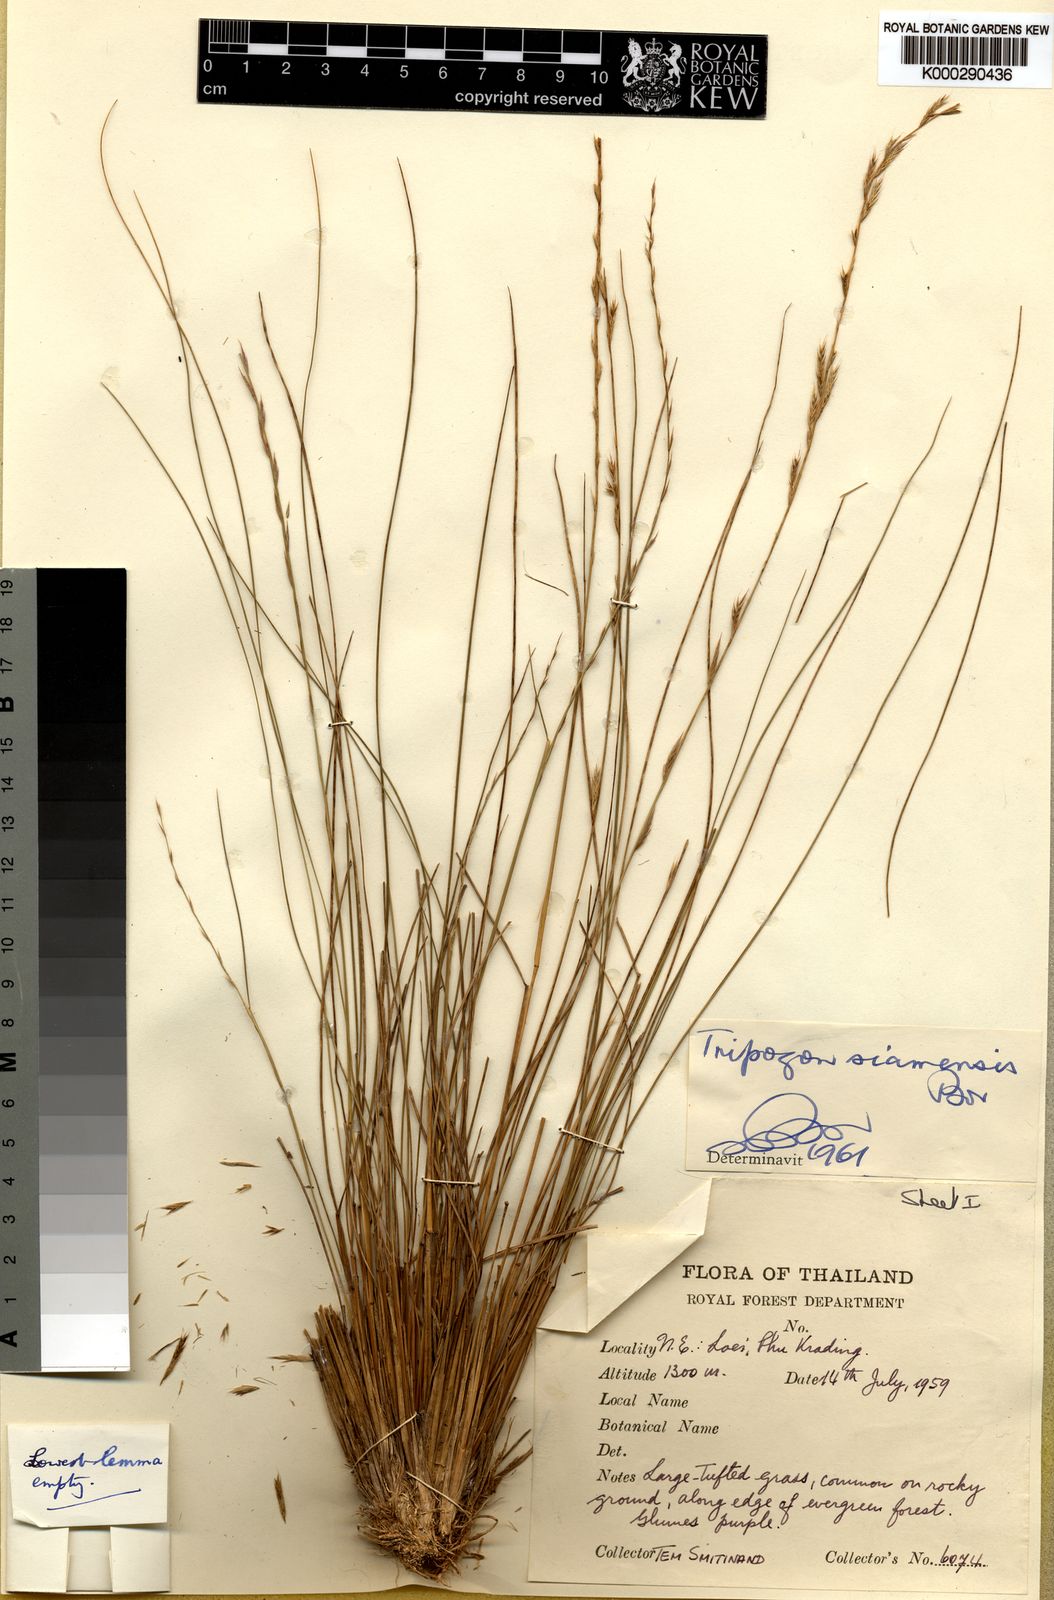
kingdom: Plantae
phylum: Tracheophyta
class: Liliopsida
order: Poales
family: Poaceae
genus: Tripogon
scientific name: Tripogon siamensis
